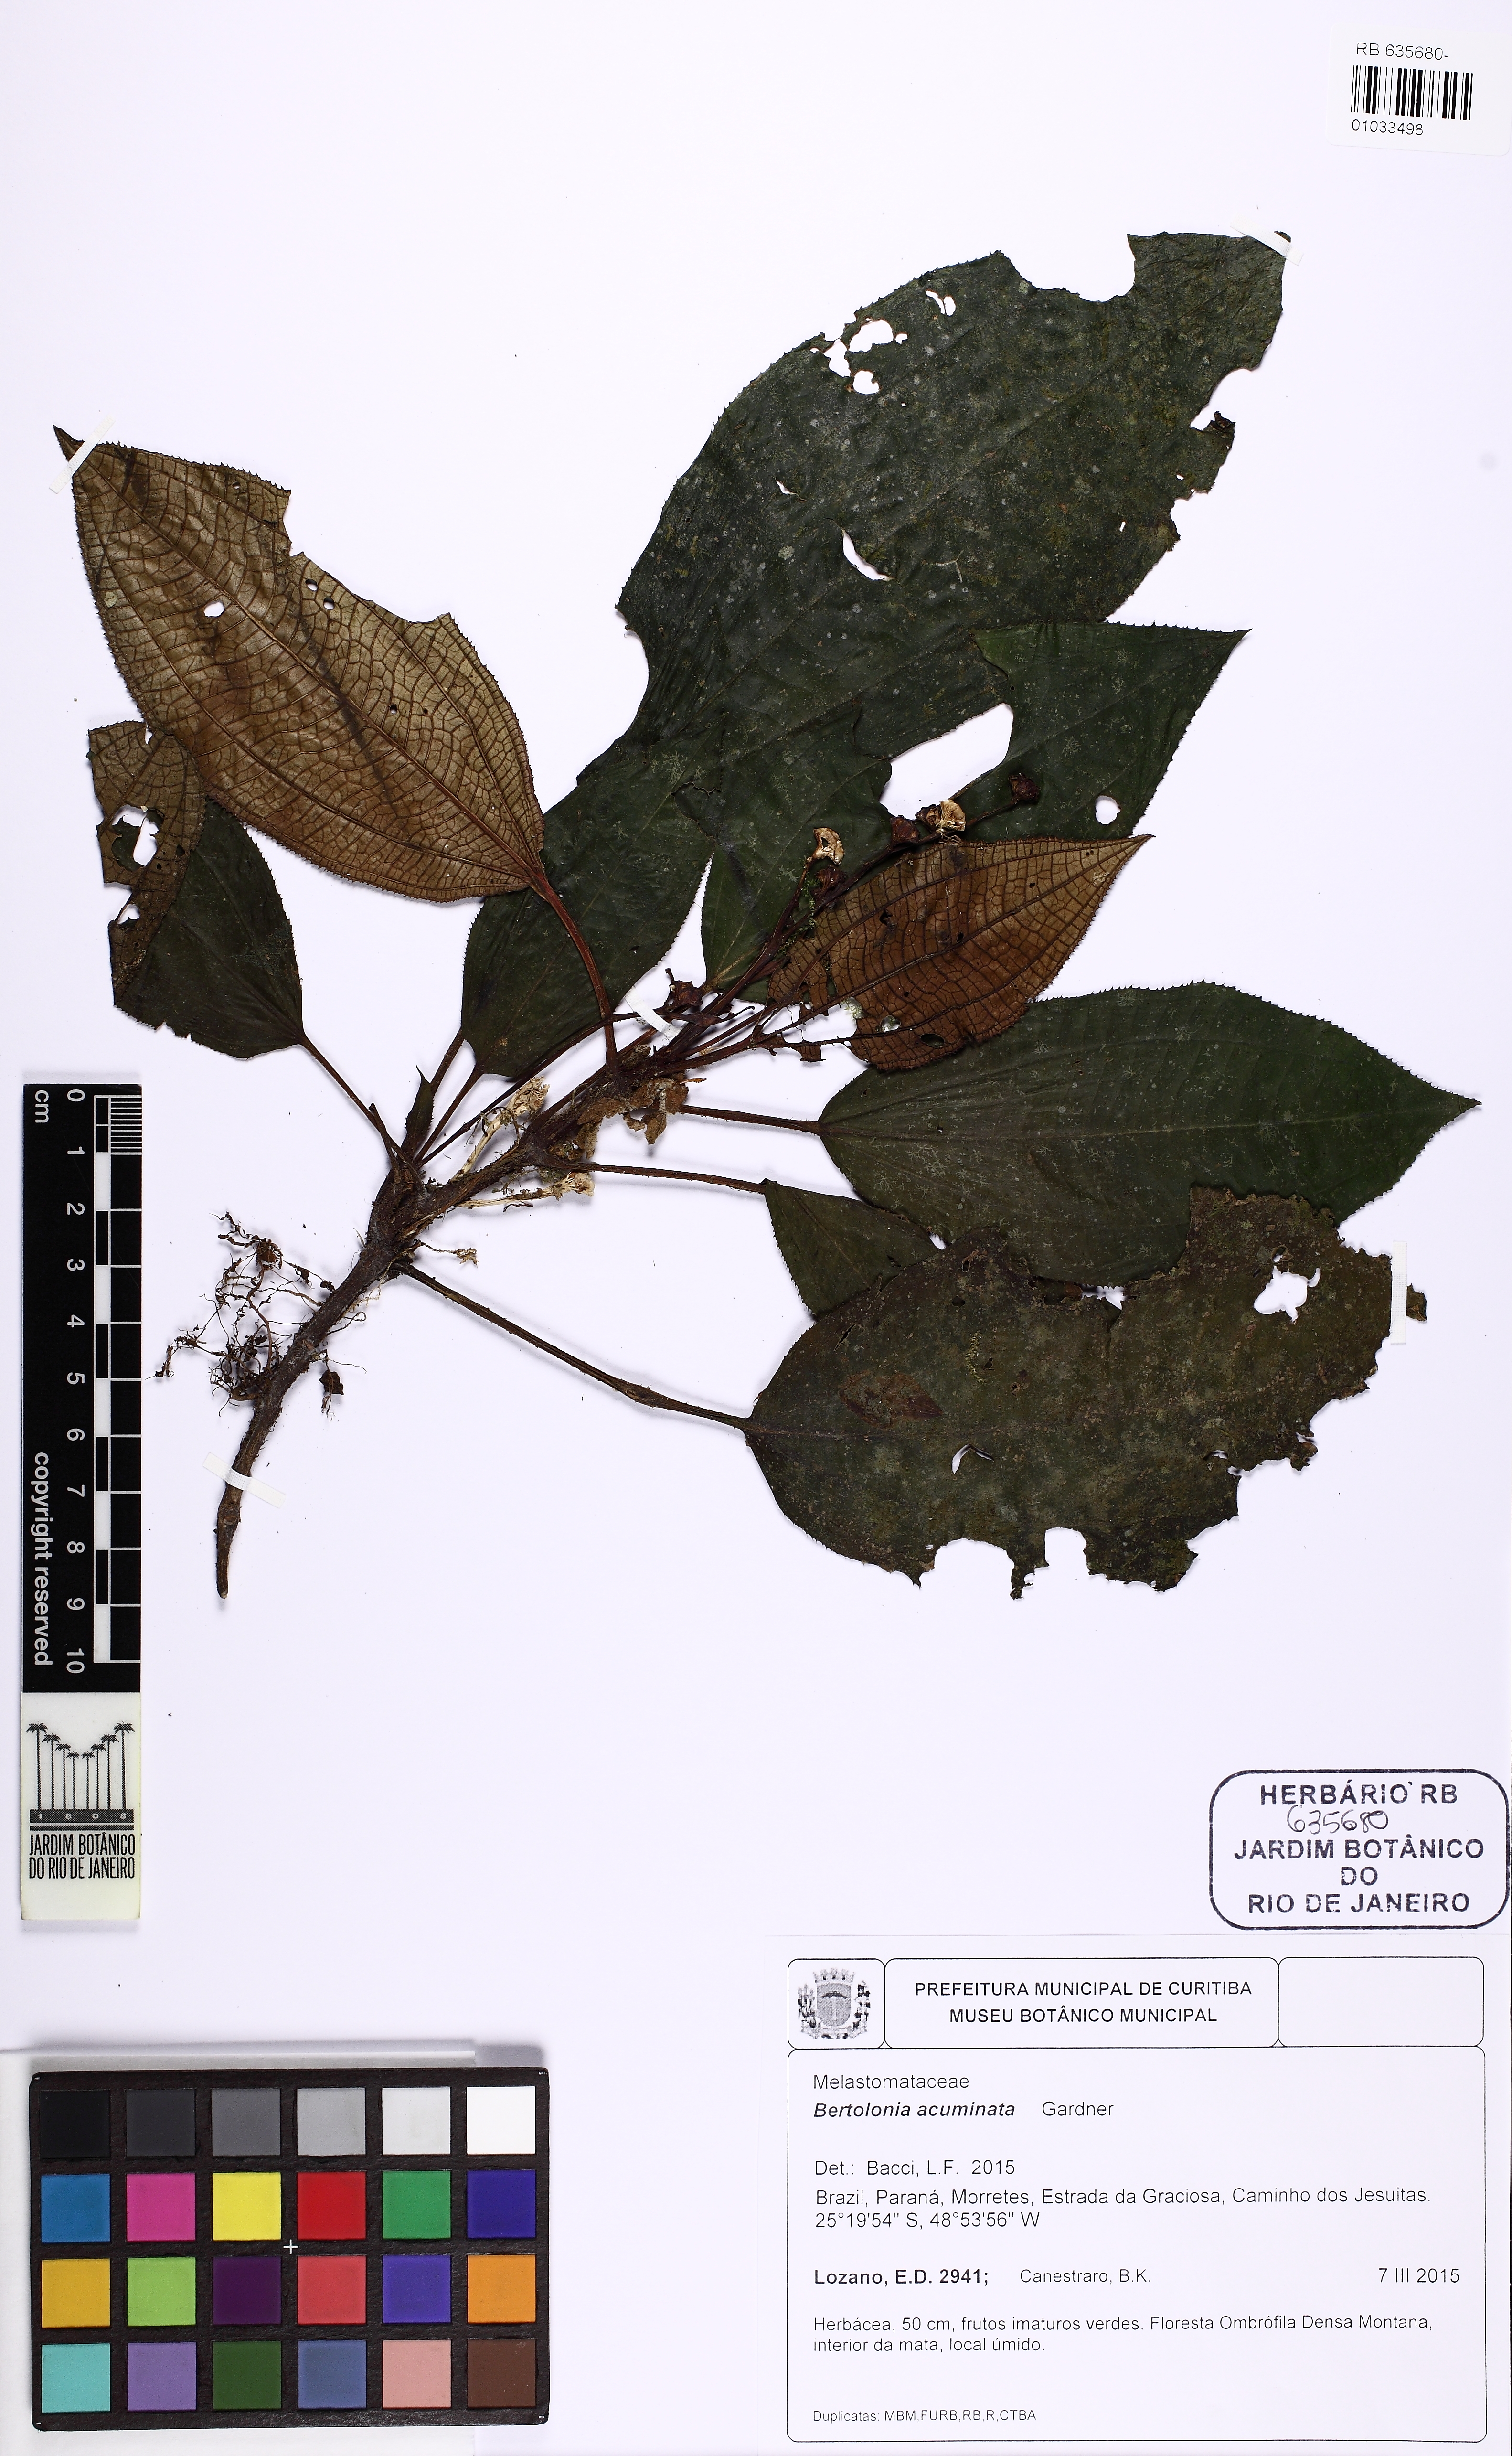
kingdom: Plantae
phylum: Tracheophyta
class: Magnoliopsida
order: Myrtales
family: Melastomataceae
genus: Bertolonia
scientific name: Bertolonia acuminata
